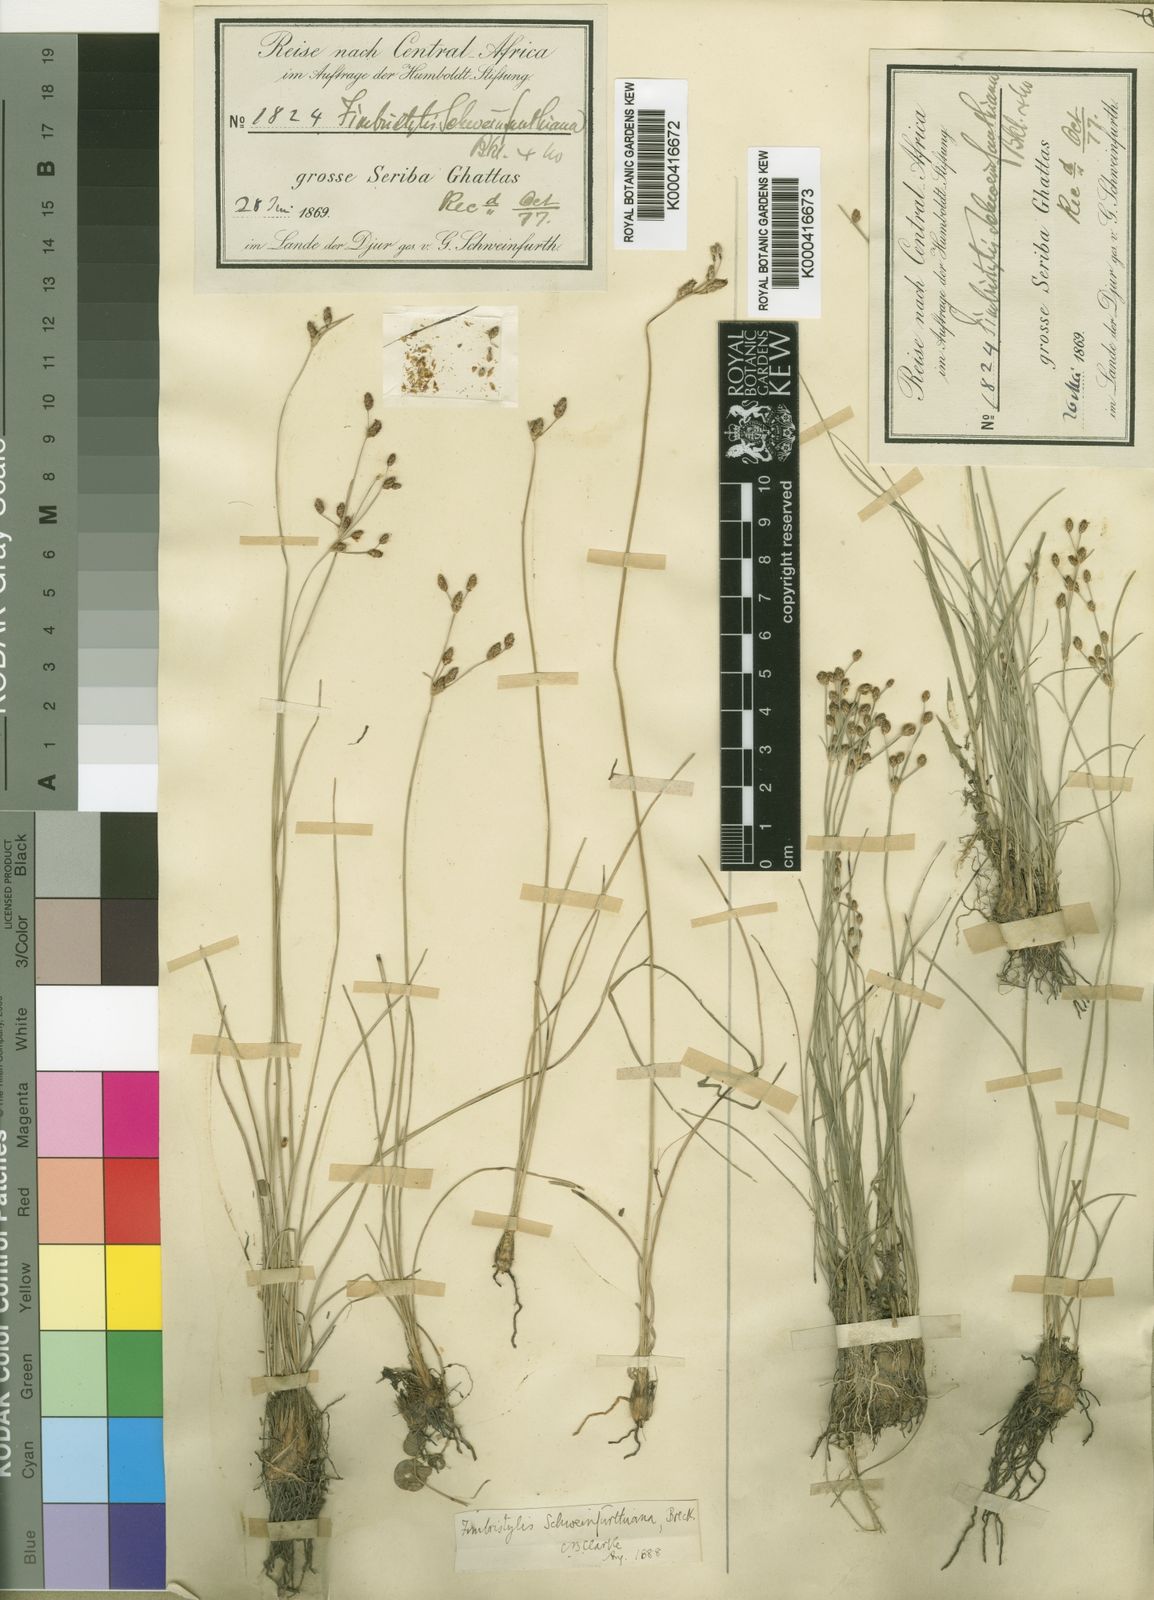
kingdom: Plantae
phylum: Tracheophyta
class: Liliopsida
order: Poales
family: Cyperaceae
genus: Fimbristylis
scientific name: Fimbristylis schweinfurthiana
